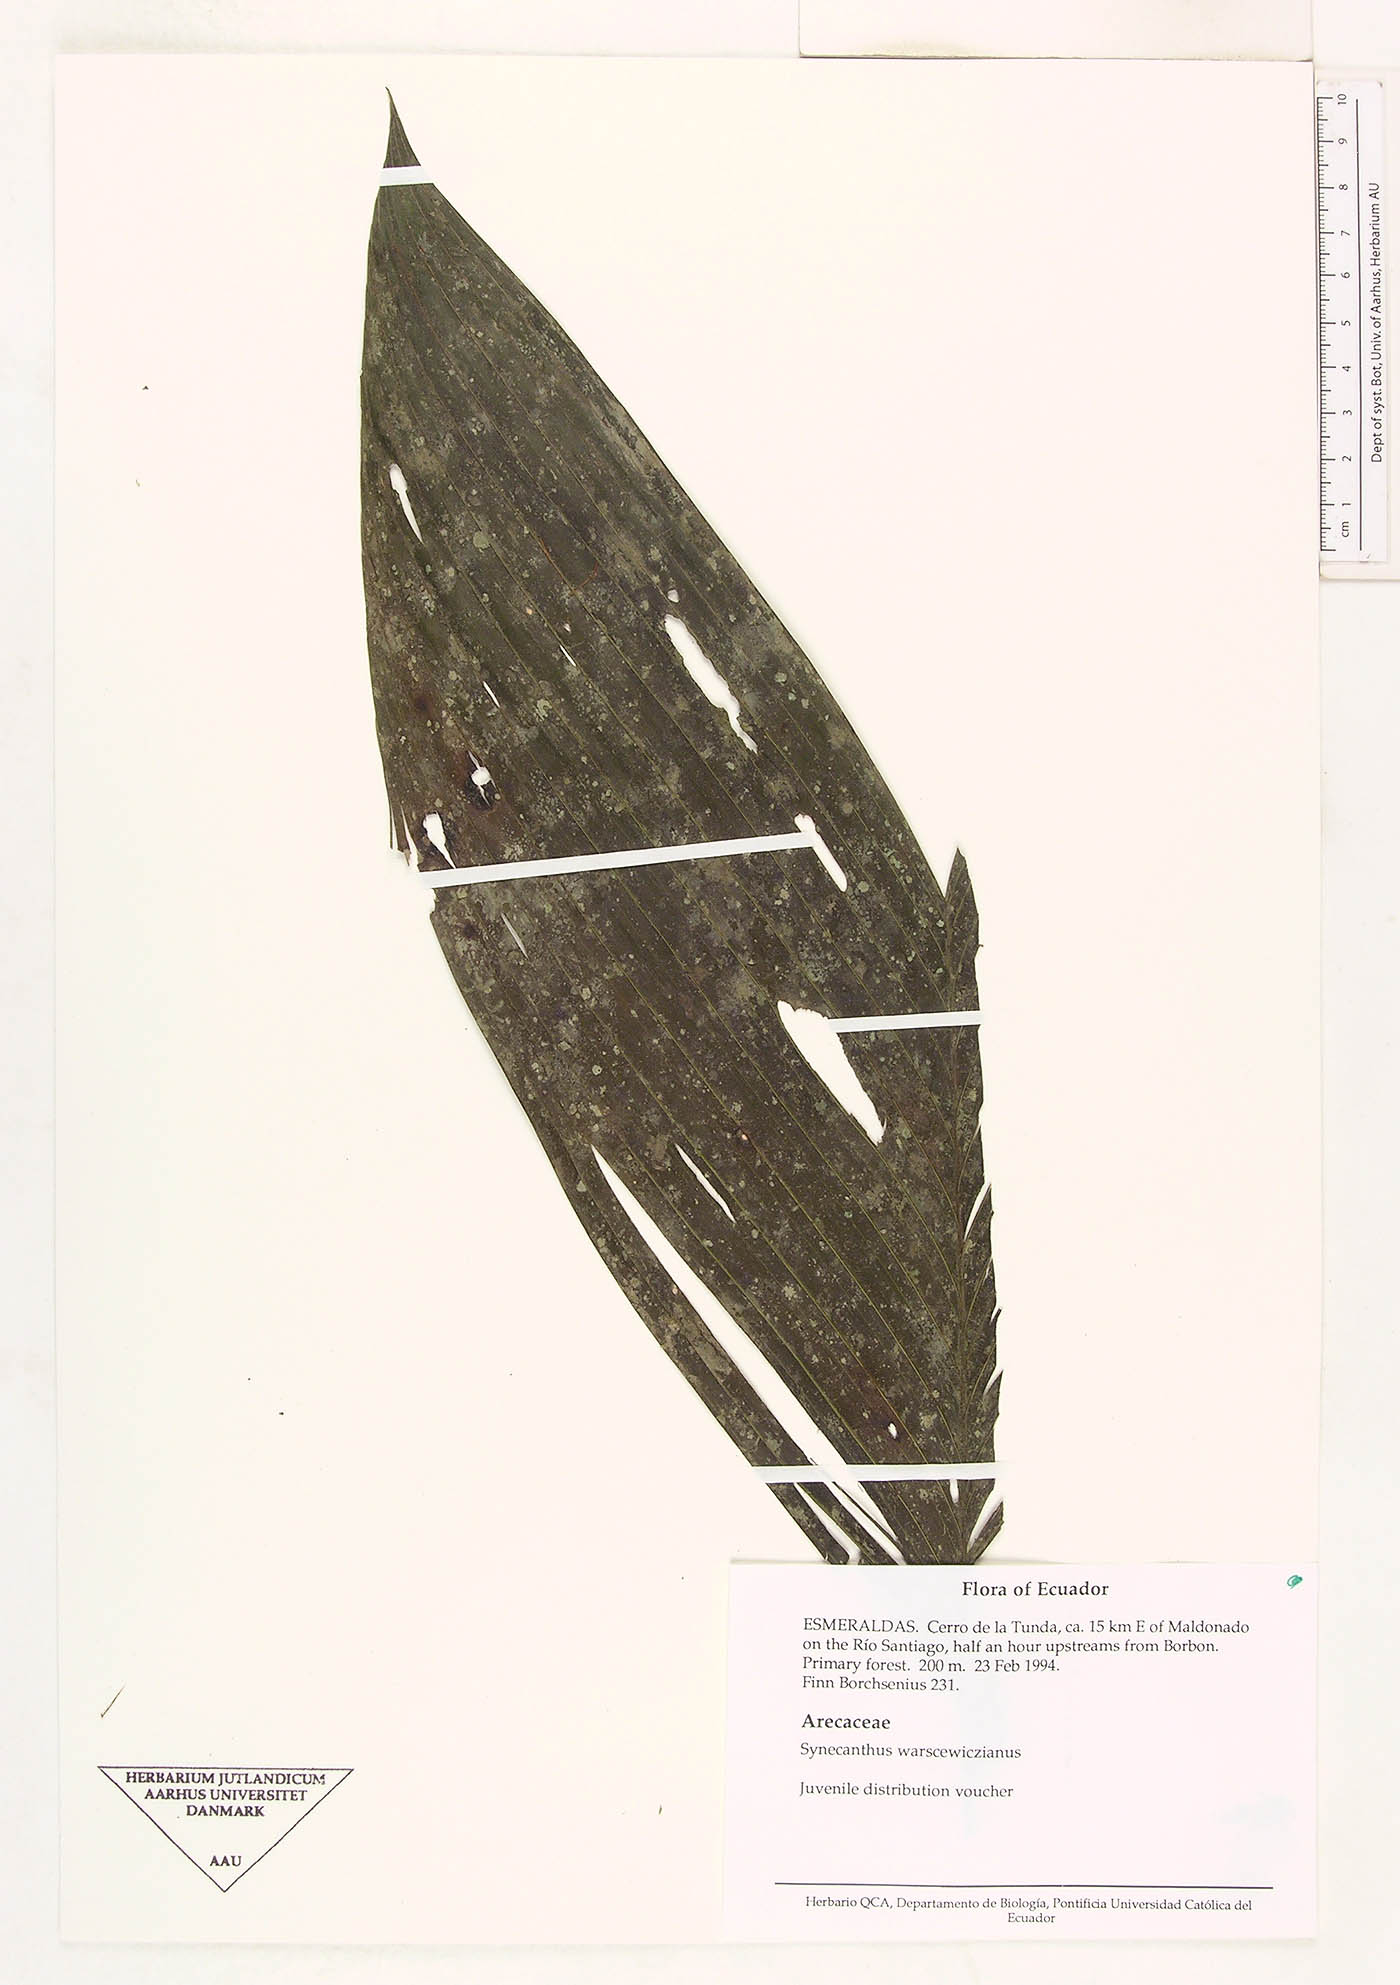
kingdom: Plantae
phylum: Tracheophyta
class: Liliopsida
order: Arecales
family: Arecaceae
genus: Synechanthus
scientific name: Synechanthus warscewiczianus
